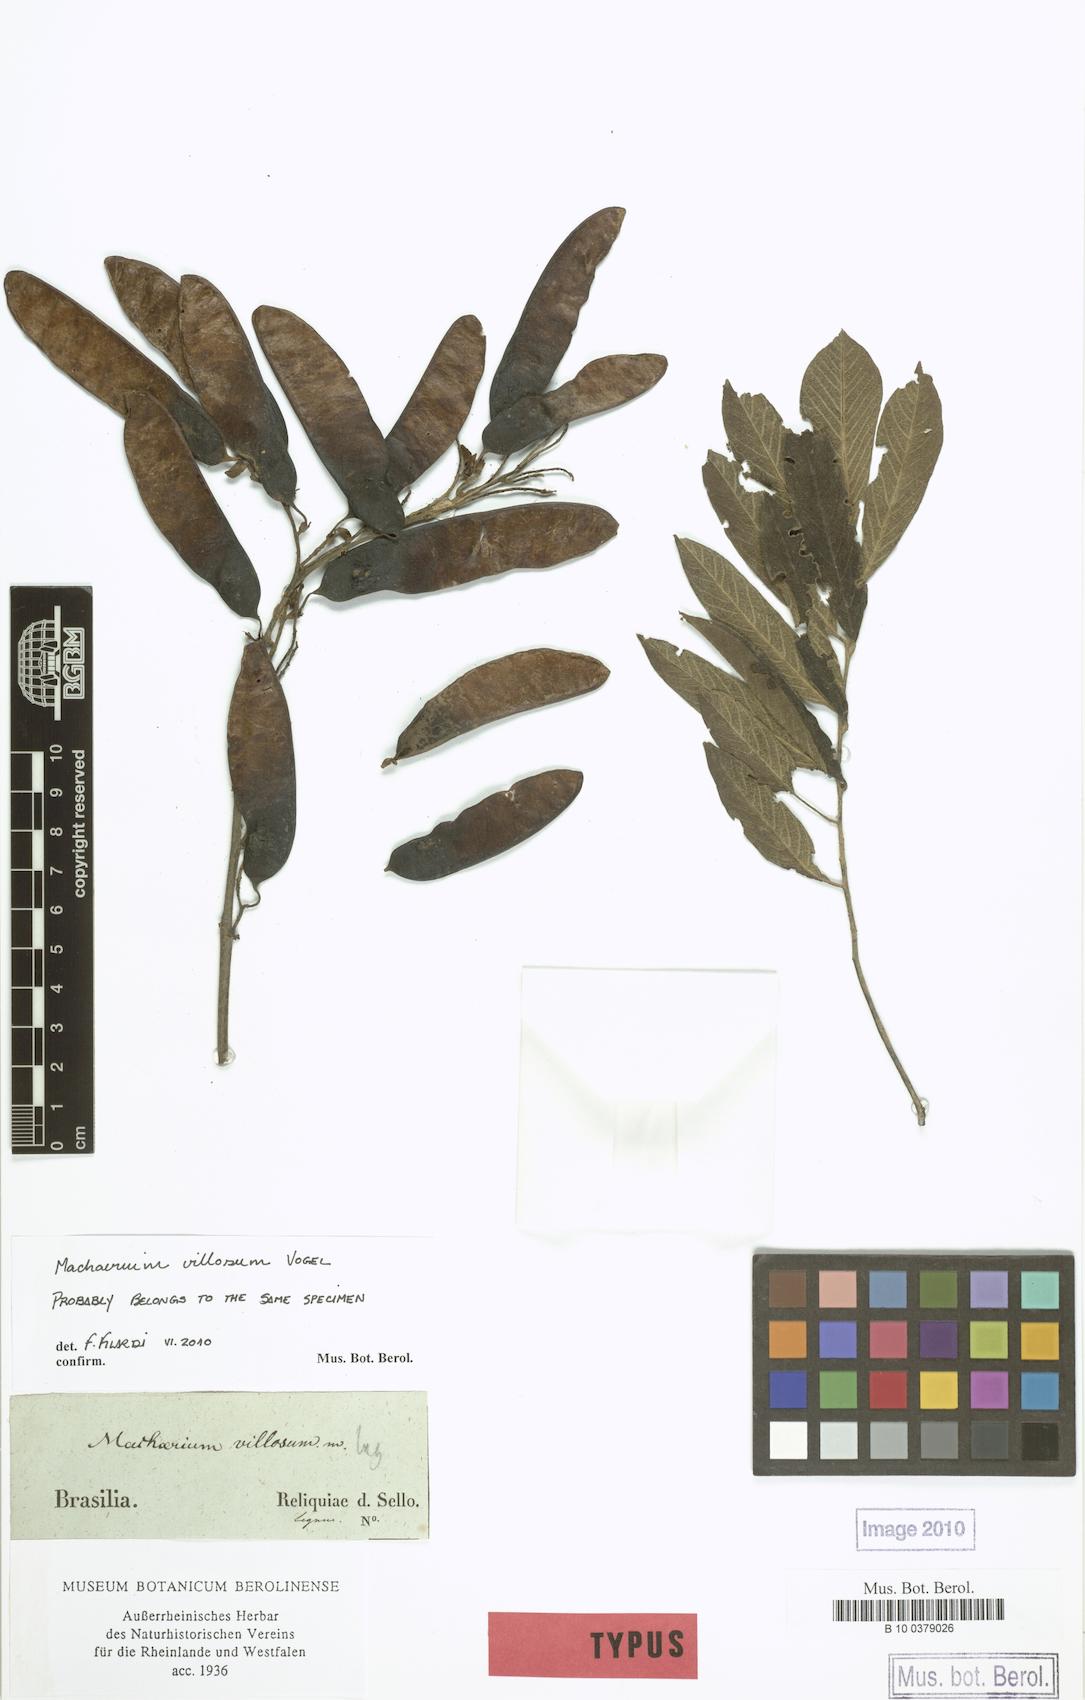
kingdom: Plantae
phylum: Tracheophyta
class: Magnoliopsida
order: Fabales
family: Fabaceae
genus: Machaerium
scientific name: Machaerium villosum
